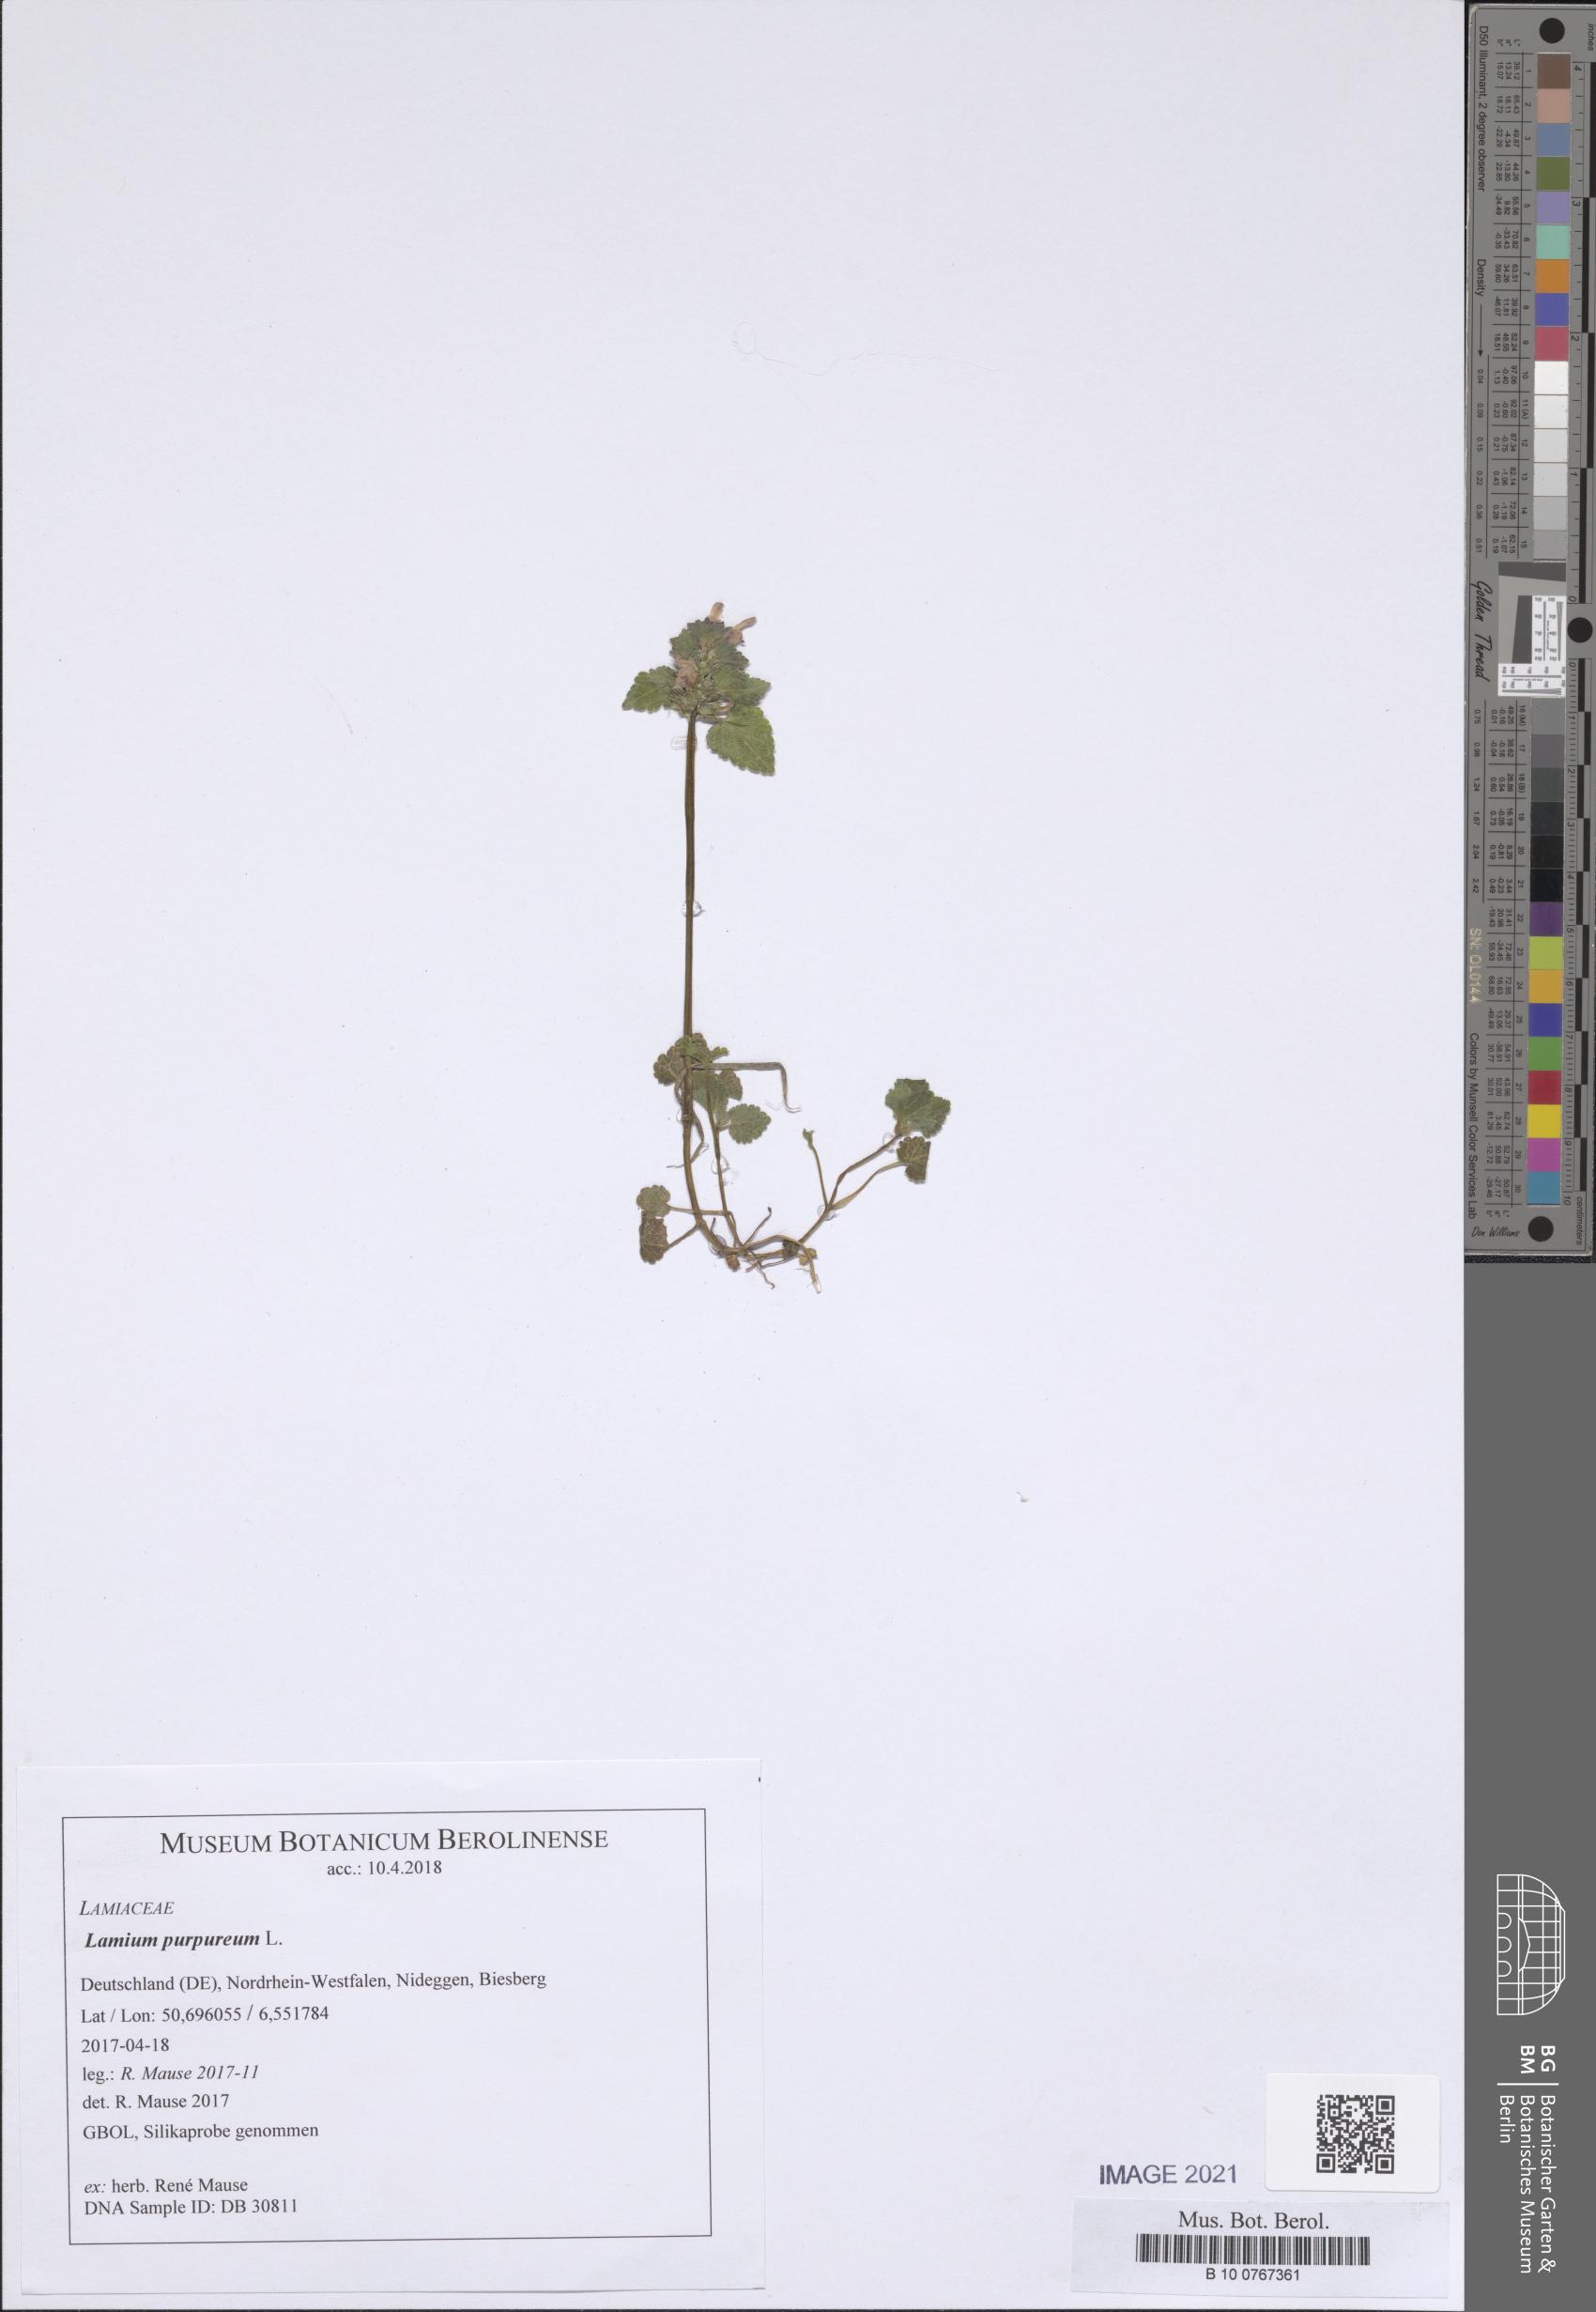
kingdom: Plantae
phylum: Tracheophyta
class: Magnoliopsida
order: Lamiales
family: Lamiaceae
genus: Lamium
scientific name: Lamium purpureum
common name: Red dead-nettle
